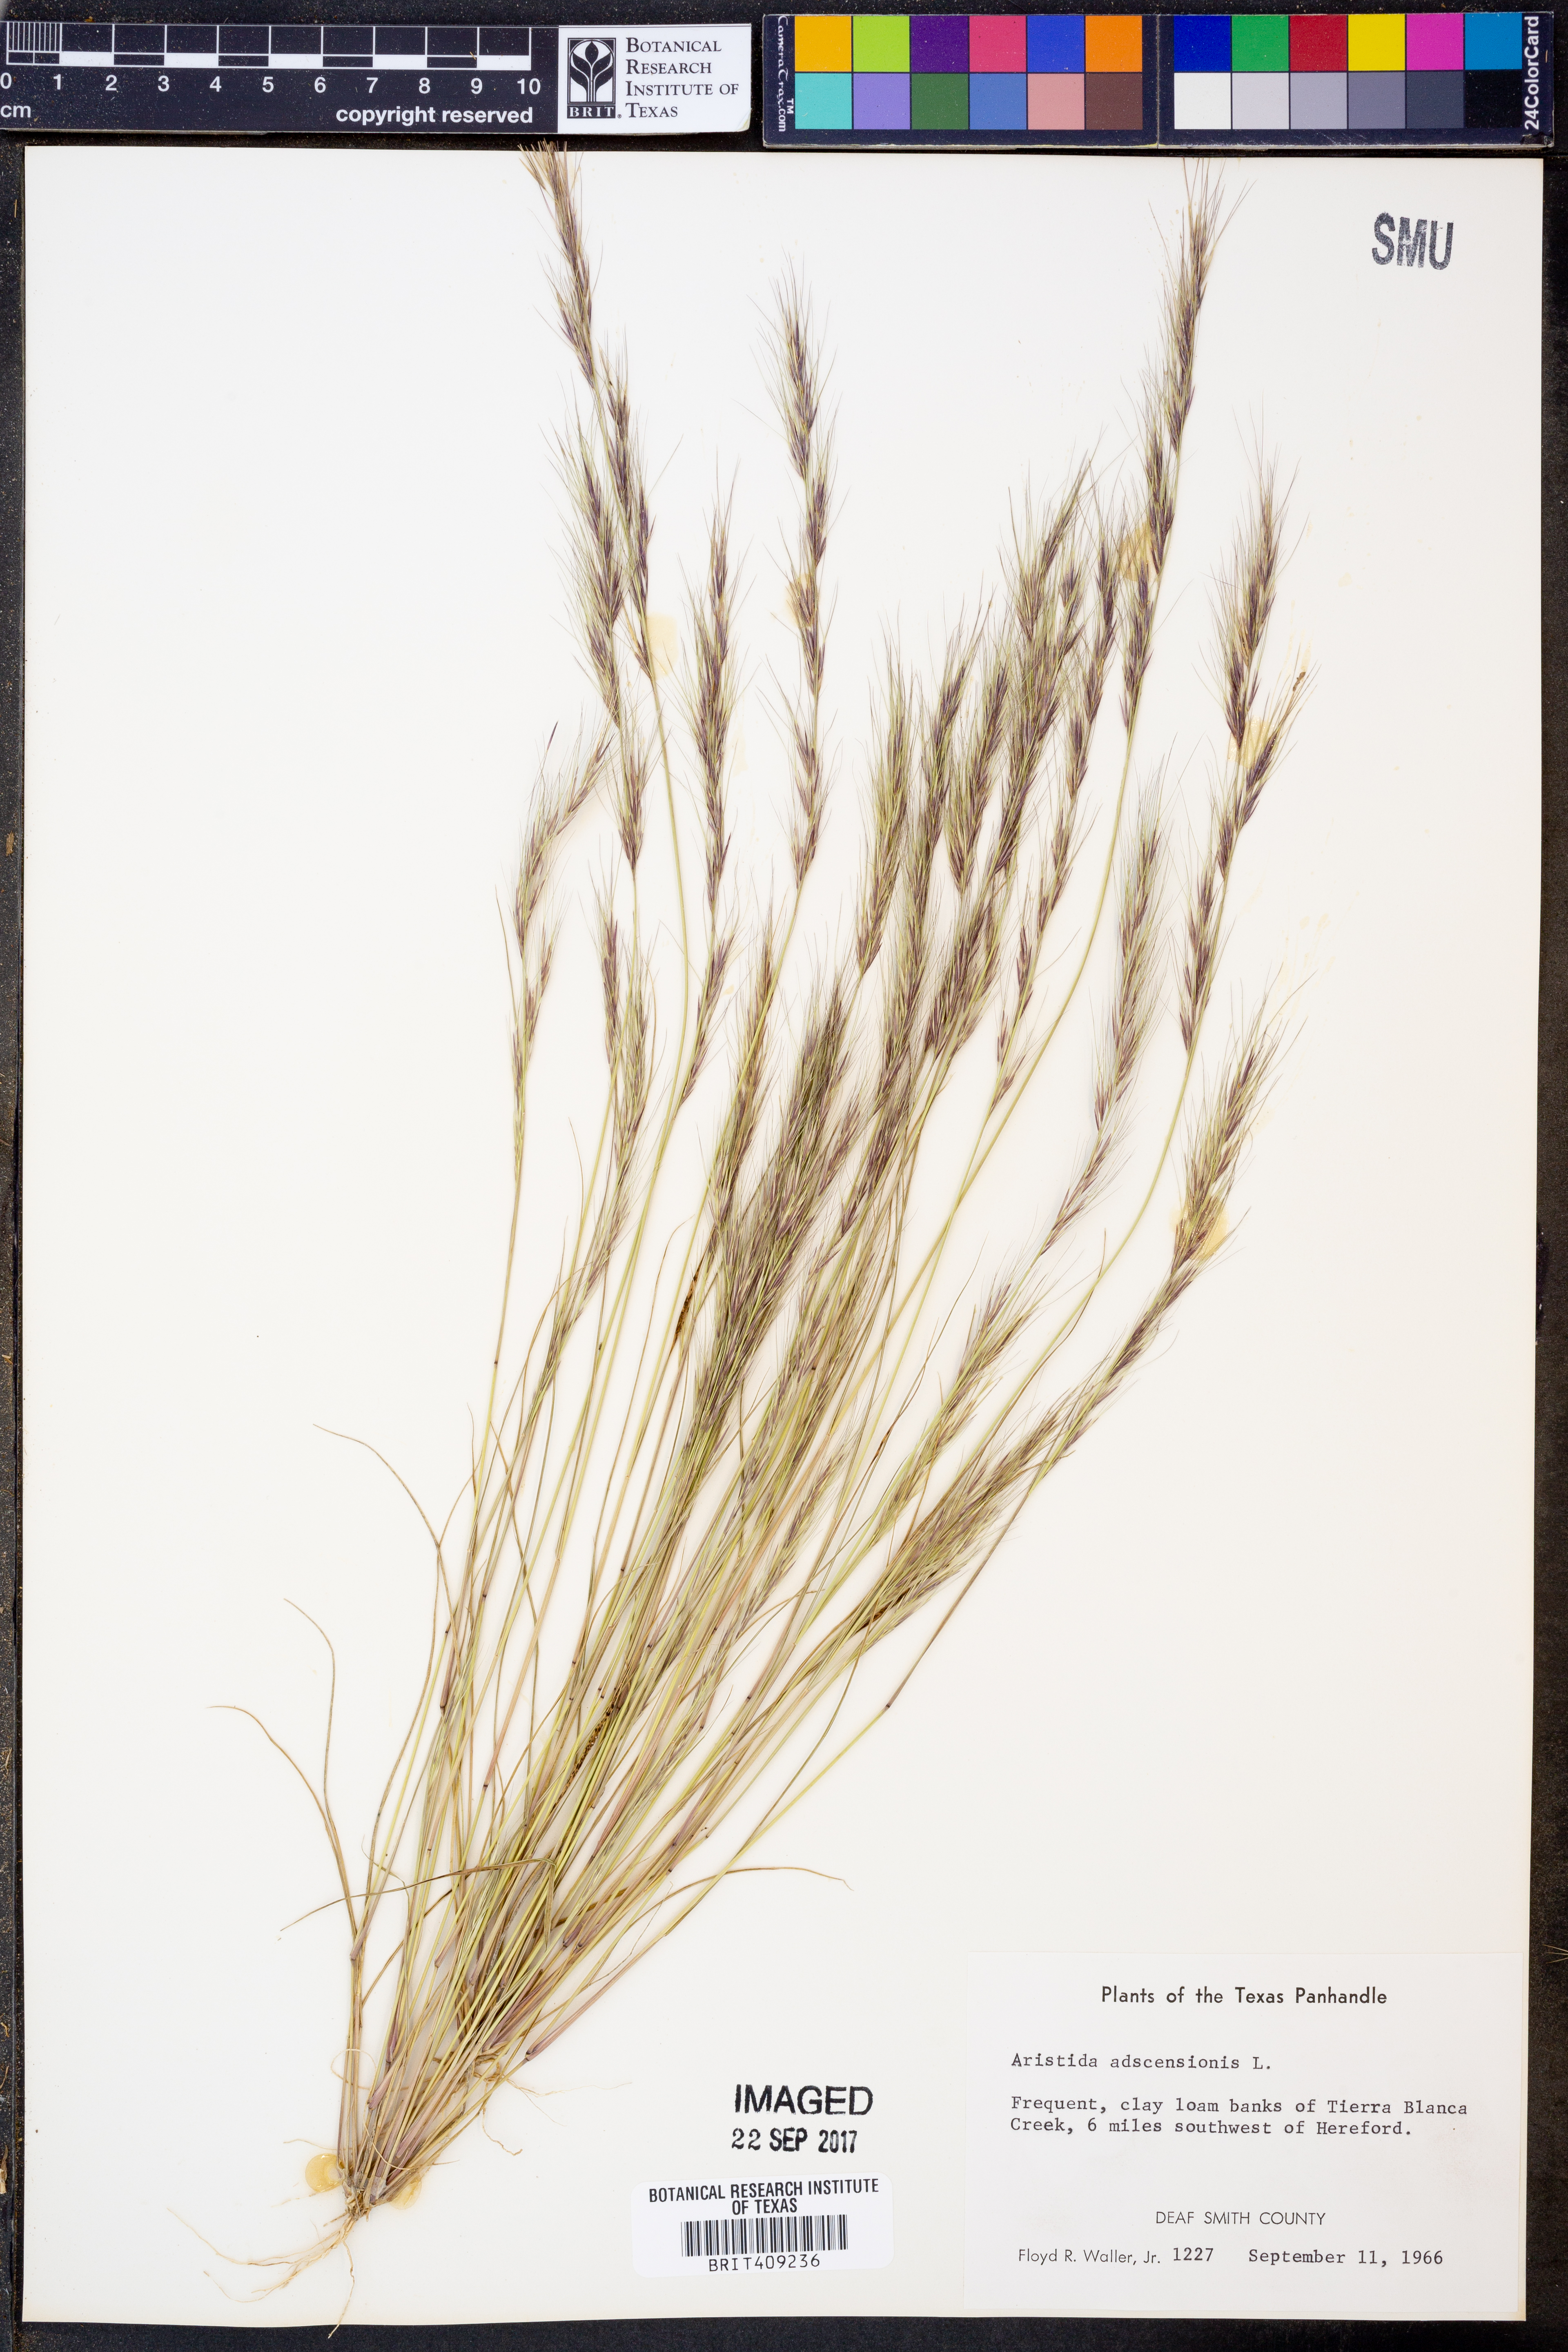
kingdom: Plantae
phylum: Tracheophyta
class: Liliopsida
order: Poales
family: Poaceae
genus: Aristida
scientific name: Aristida adscensionis
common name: Sixweeks threeawn
